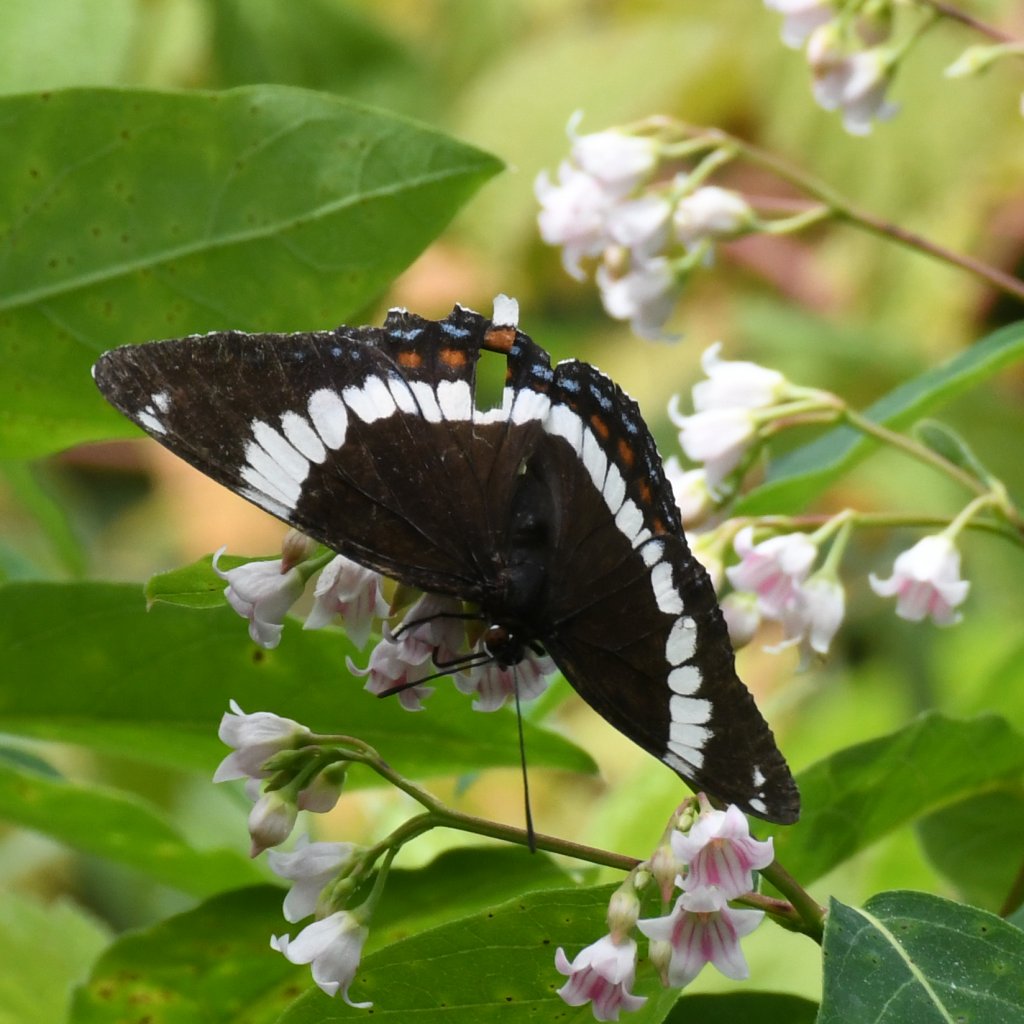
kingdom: Animalia
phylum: Arthropoda
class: Insecta
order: Lepidoptera
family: Nymphalidae
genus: Limenitis
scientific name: Limenitis arthemis
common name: Red-spotted Admiral
